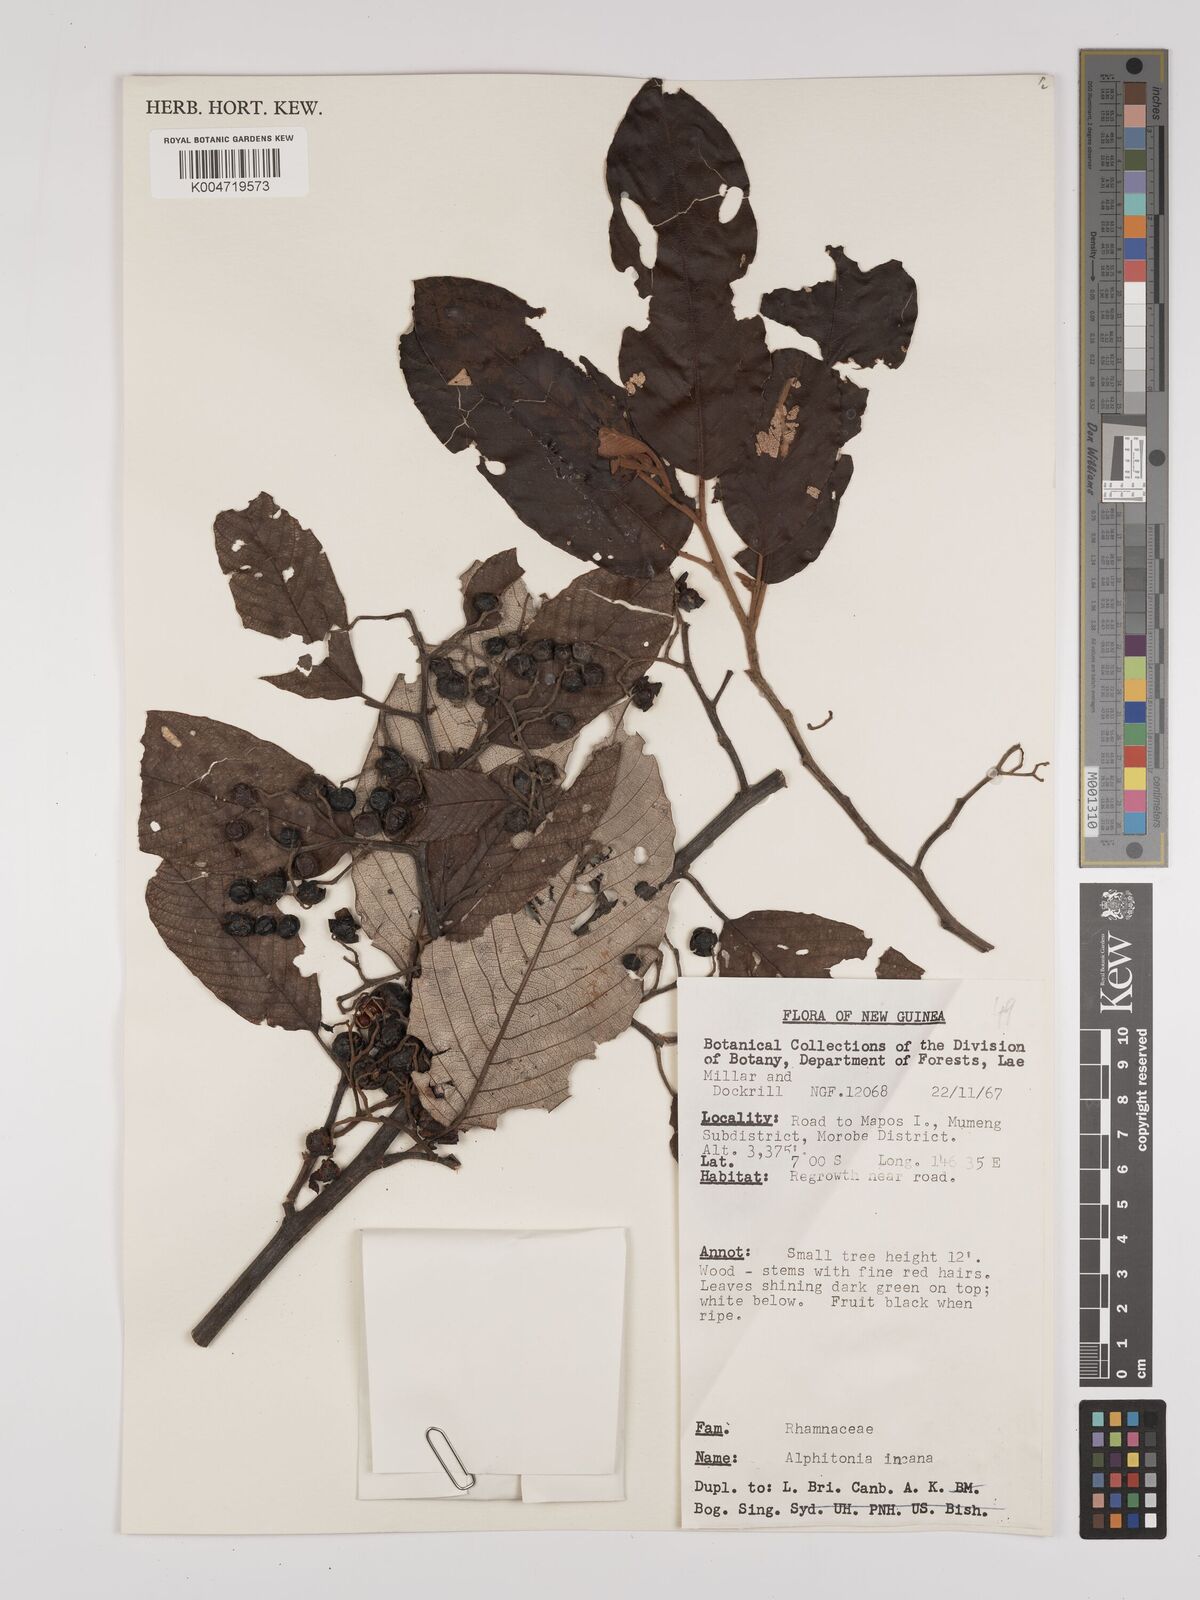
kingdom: Plantae
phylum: Tracheophyta
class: Magnoliopsida
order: Rosales
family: Rhamnaceae
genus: Alphitonia
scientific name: Alphitonia incana
